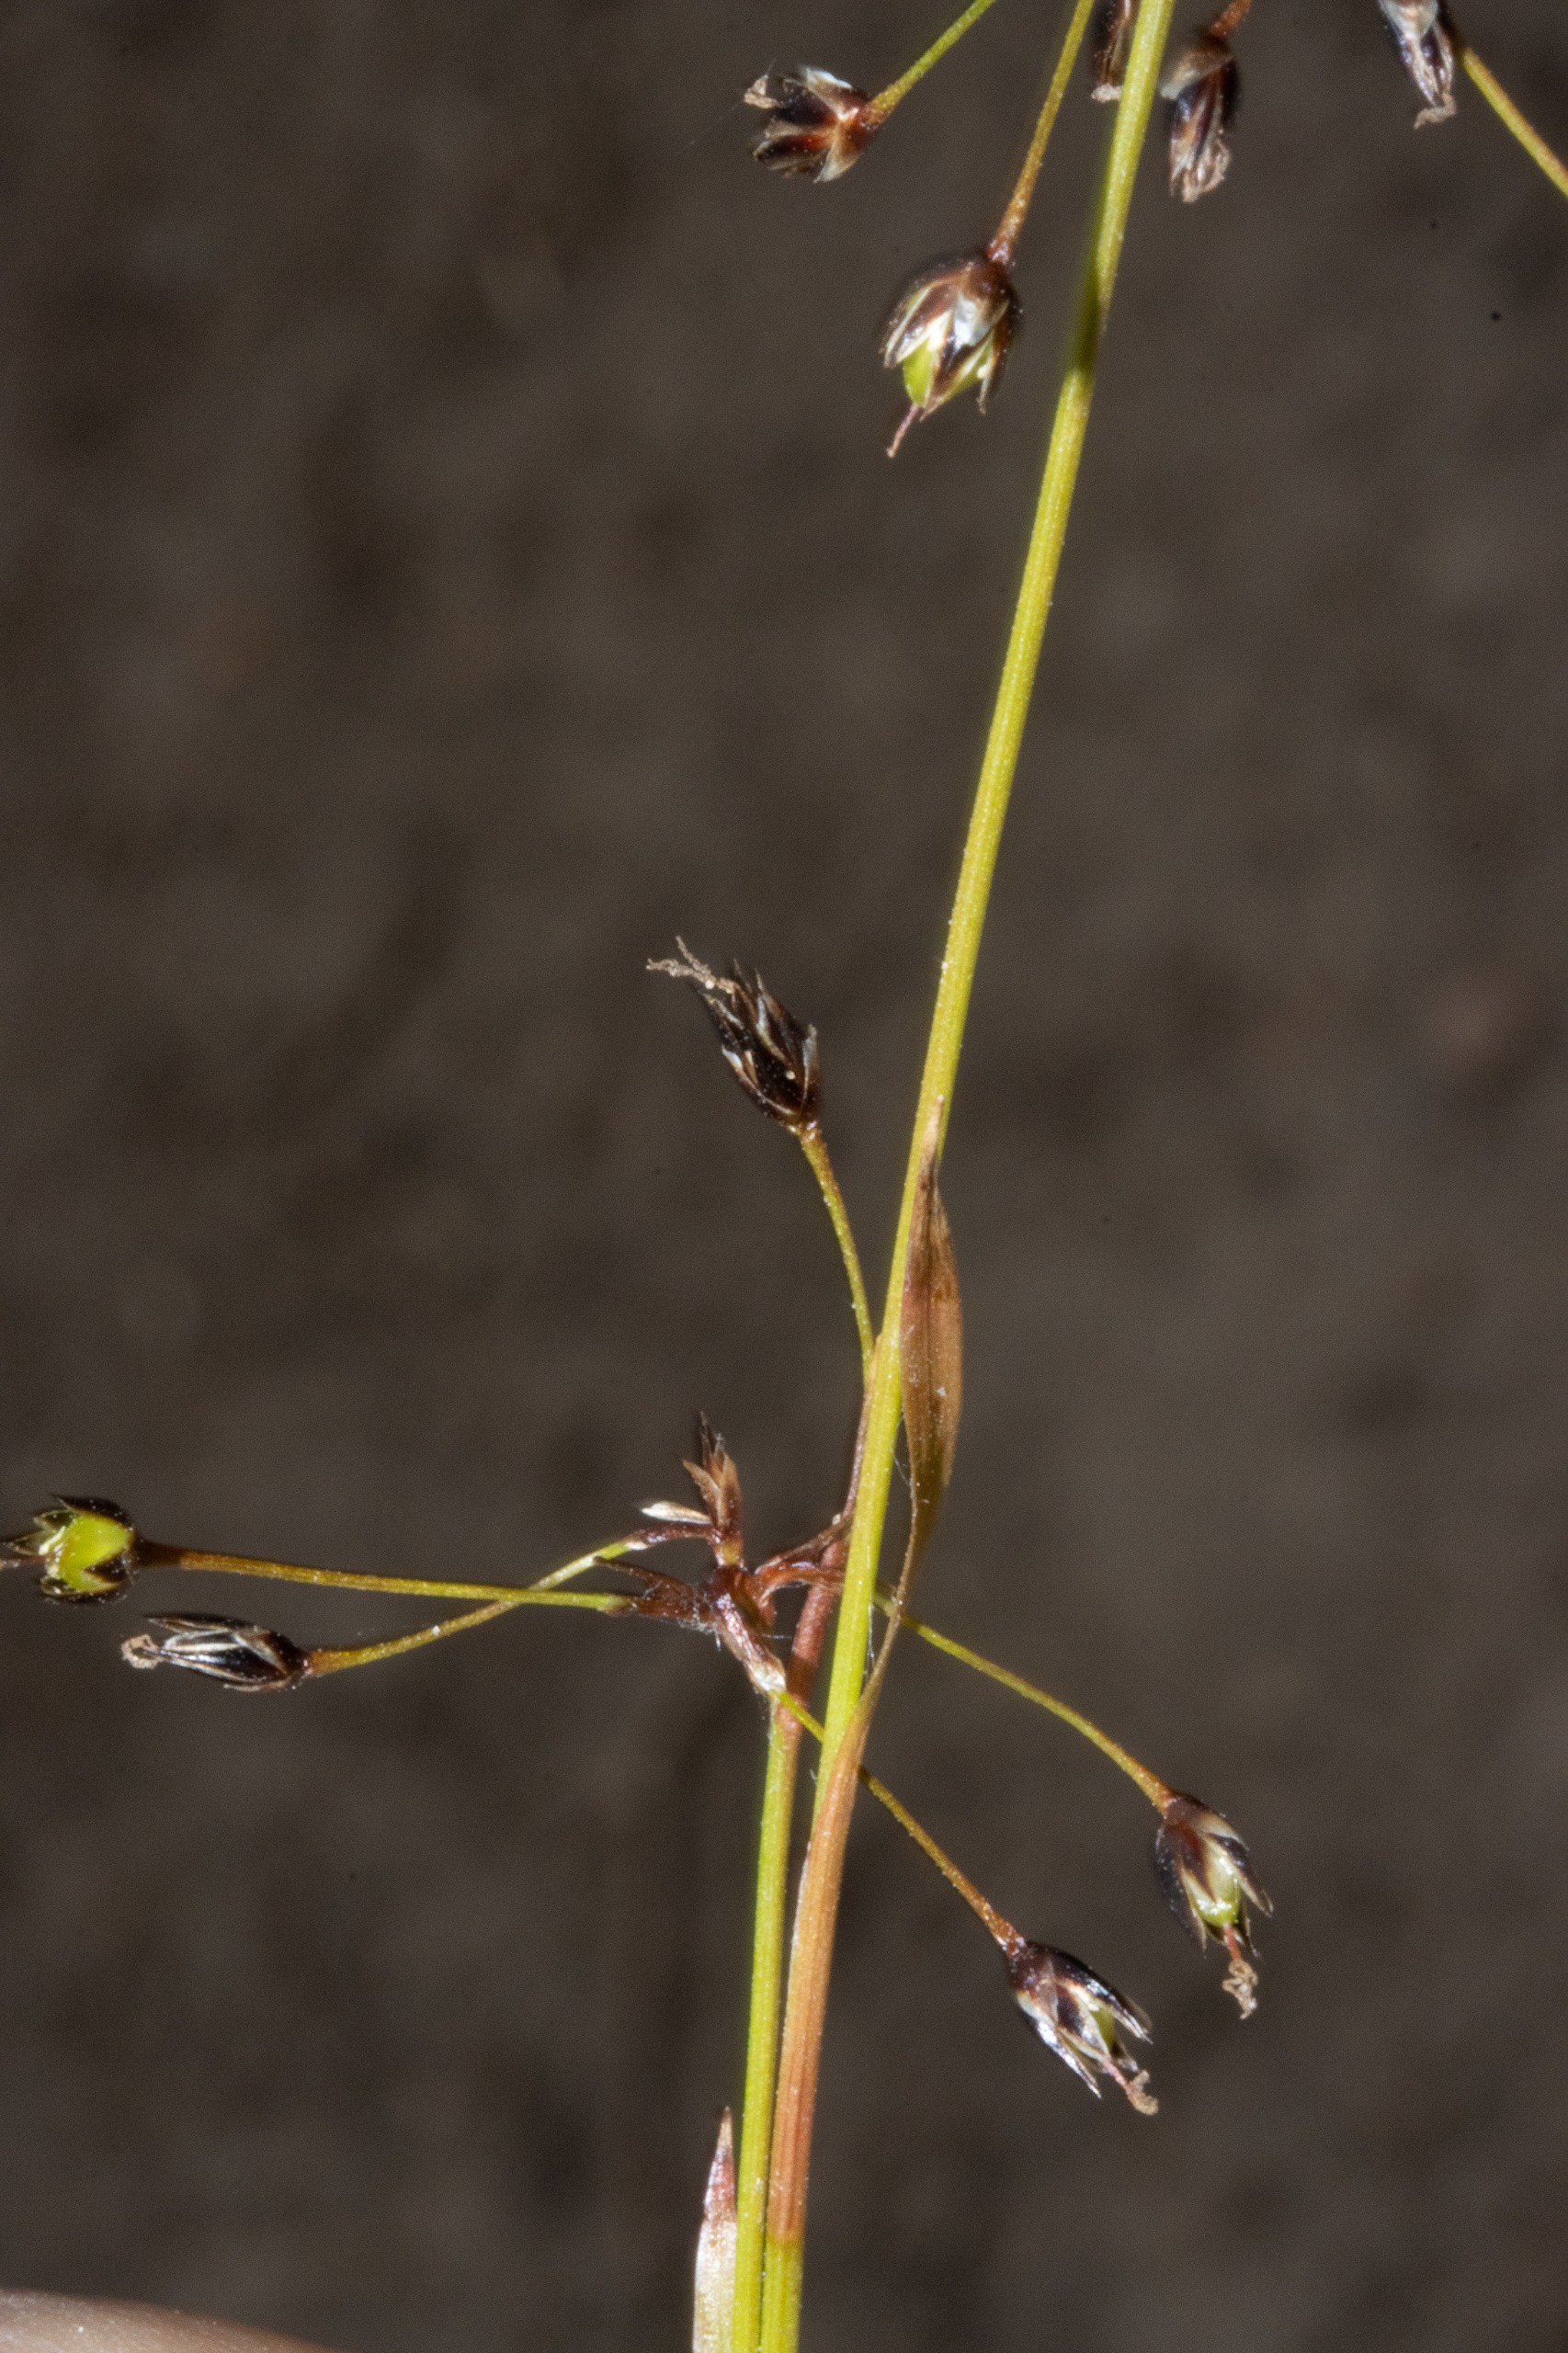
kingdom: Plantae
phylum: Tracheophyta
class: Liliopsida
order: Poales
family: Juncaceae
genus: Luzula
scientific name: Luzula pilosa
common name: Håret frytle
